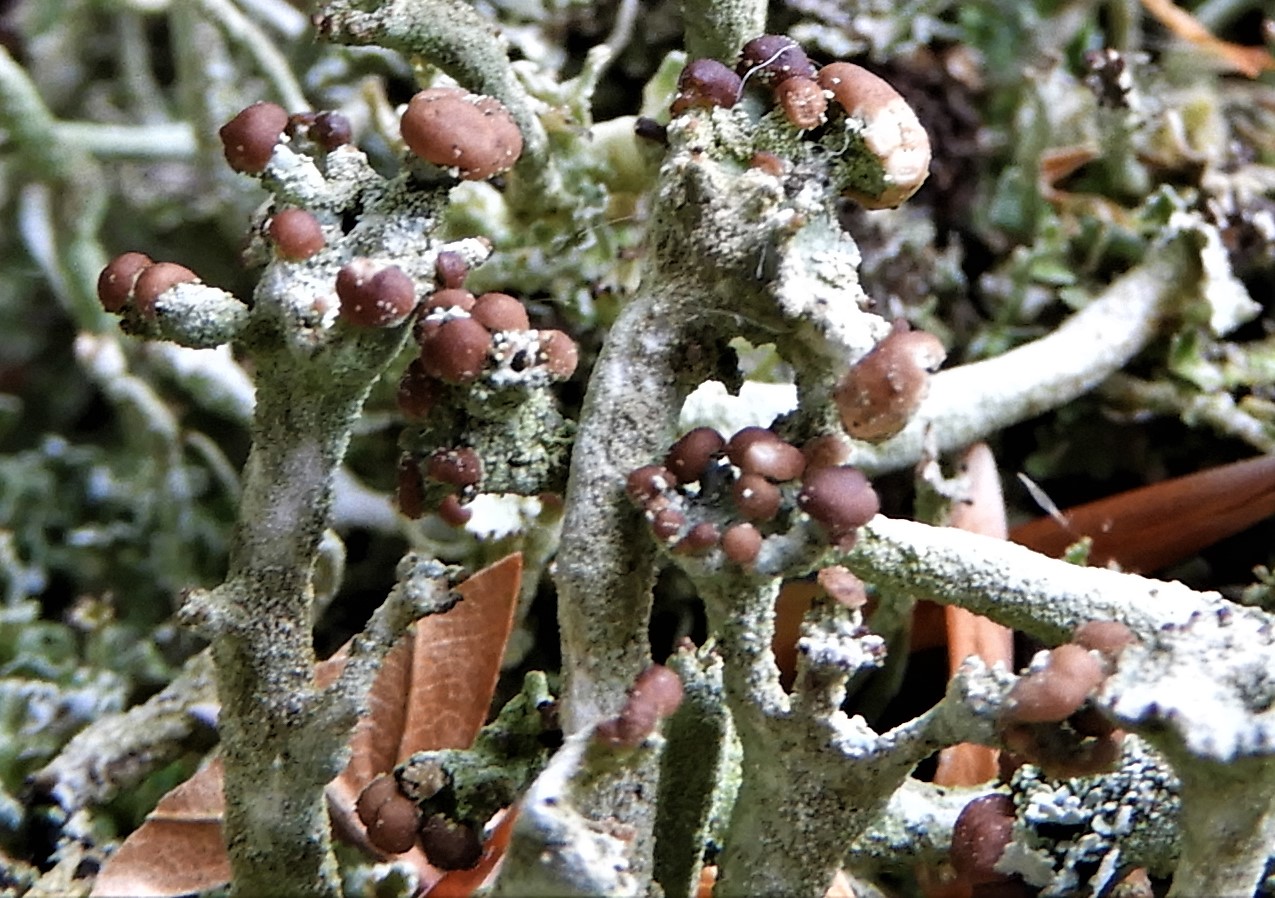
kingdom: Fungi
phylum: Ascomycota
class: Lecanoromycetes
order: Lecanorales
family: Cladoniaceae
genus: Cladonia
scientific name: Cladonia ramulosa
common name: kliddet bægerlav
